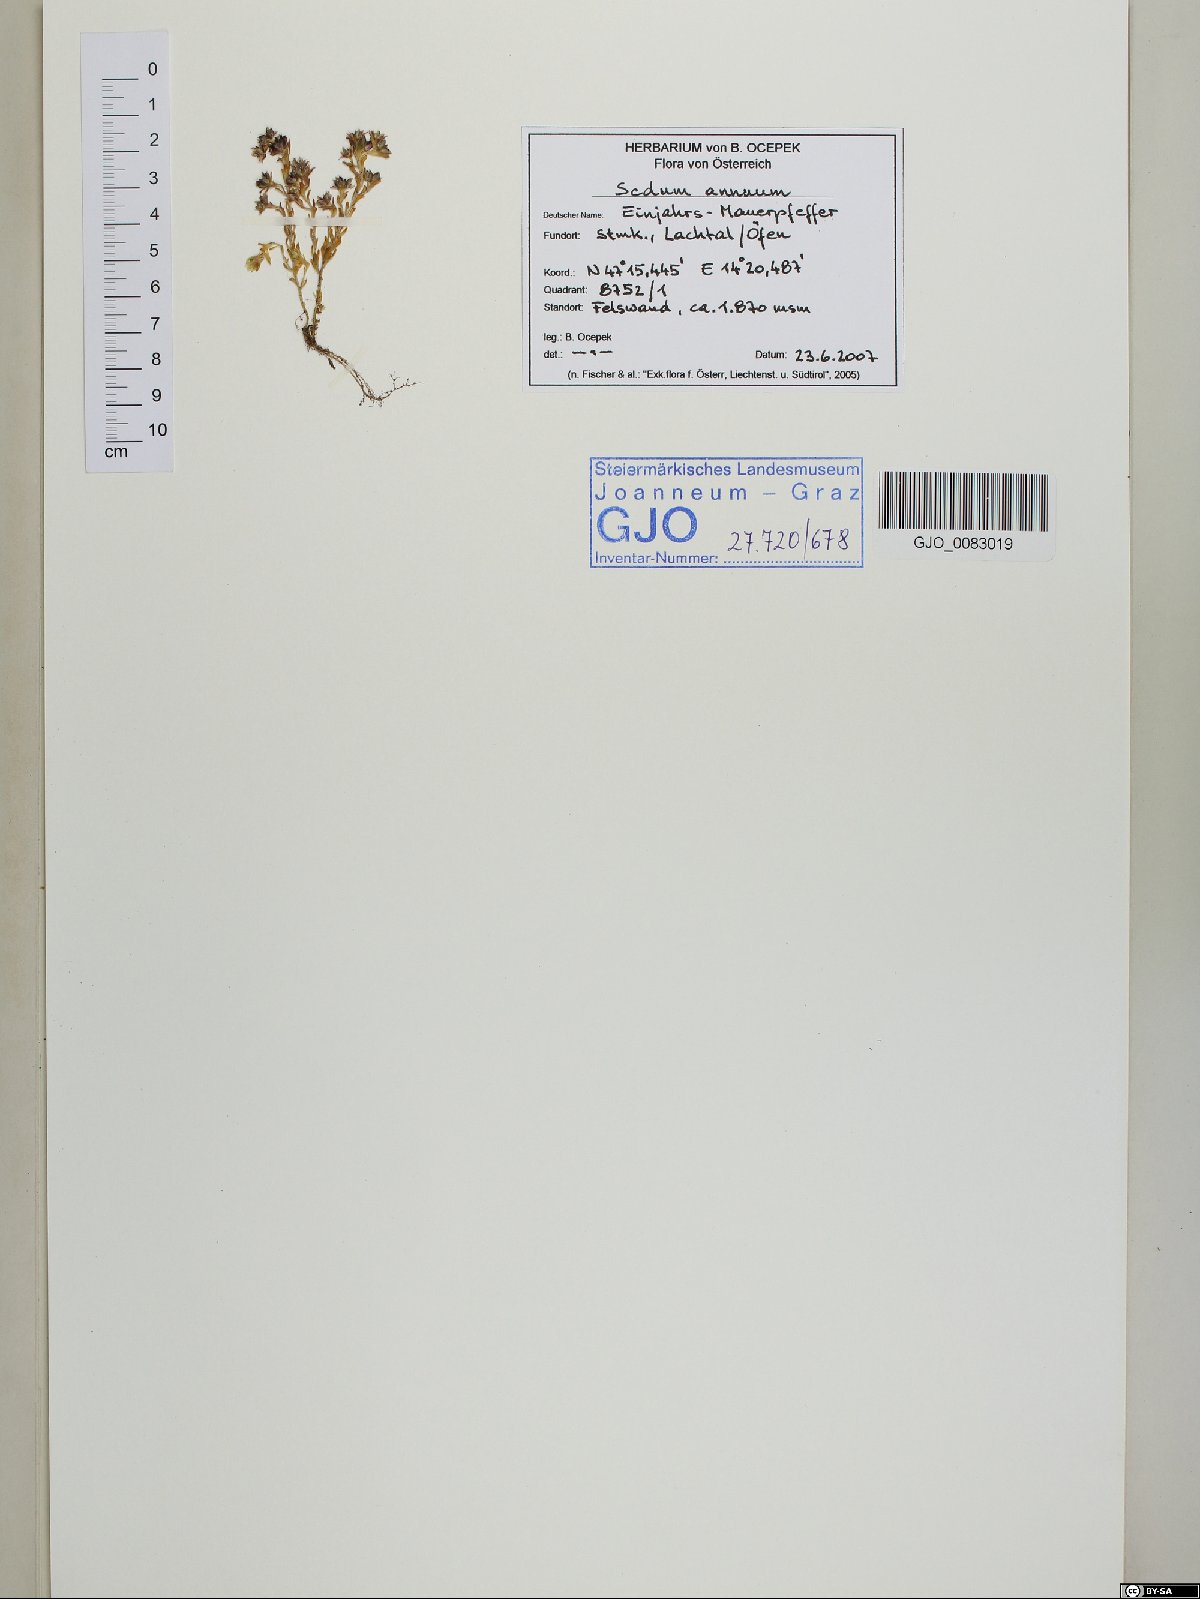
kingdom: Plantae
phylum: Tracheophyta
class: Magnoliopsida
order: Saxifragales
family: Crassulaceae
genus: Sedum
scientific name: Sedum annuum
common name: Annual stonecrop
